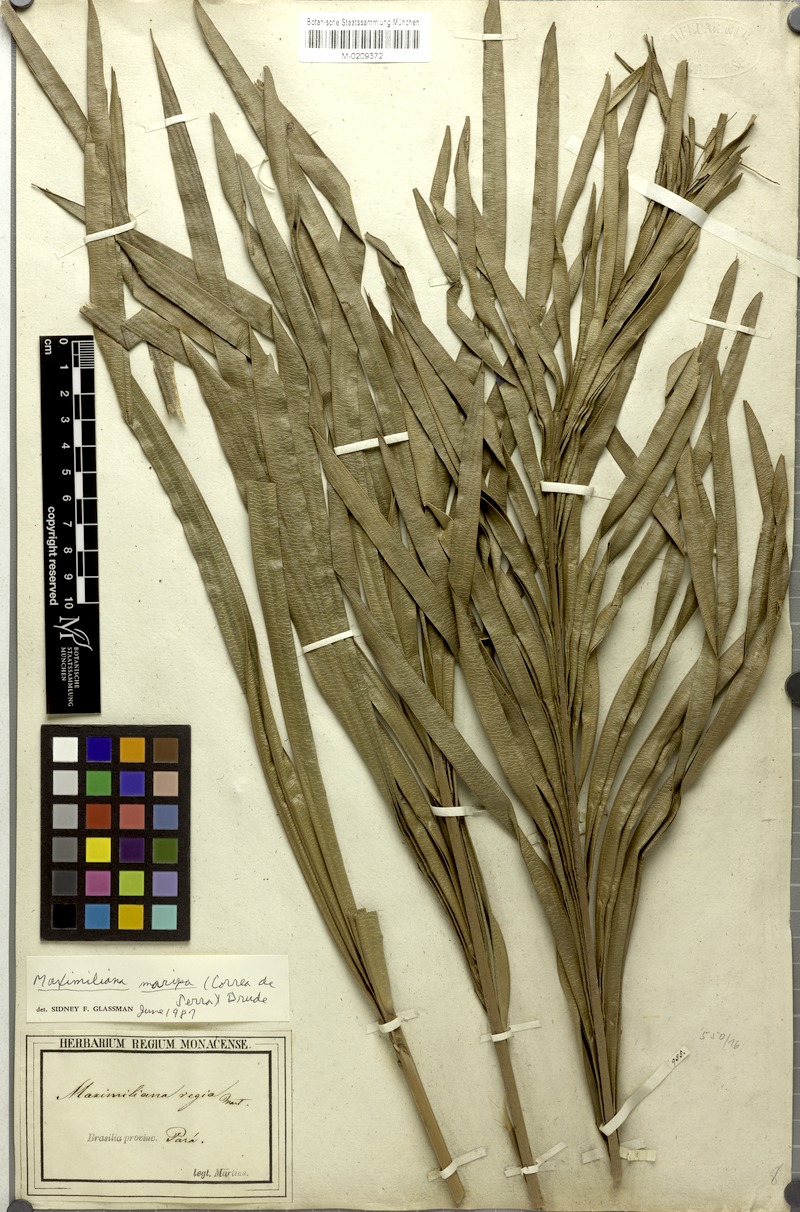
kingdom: Plantae
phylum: Tracheophyta
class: Liliopsida
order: Arecales
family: Arecaceae
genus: Attalea
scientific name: Attalea maripa
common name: Maripa palm
